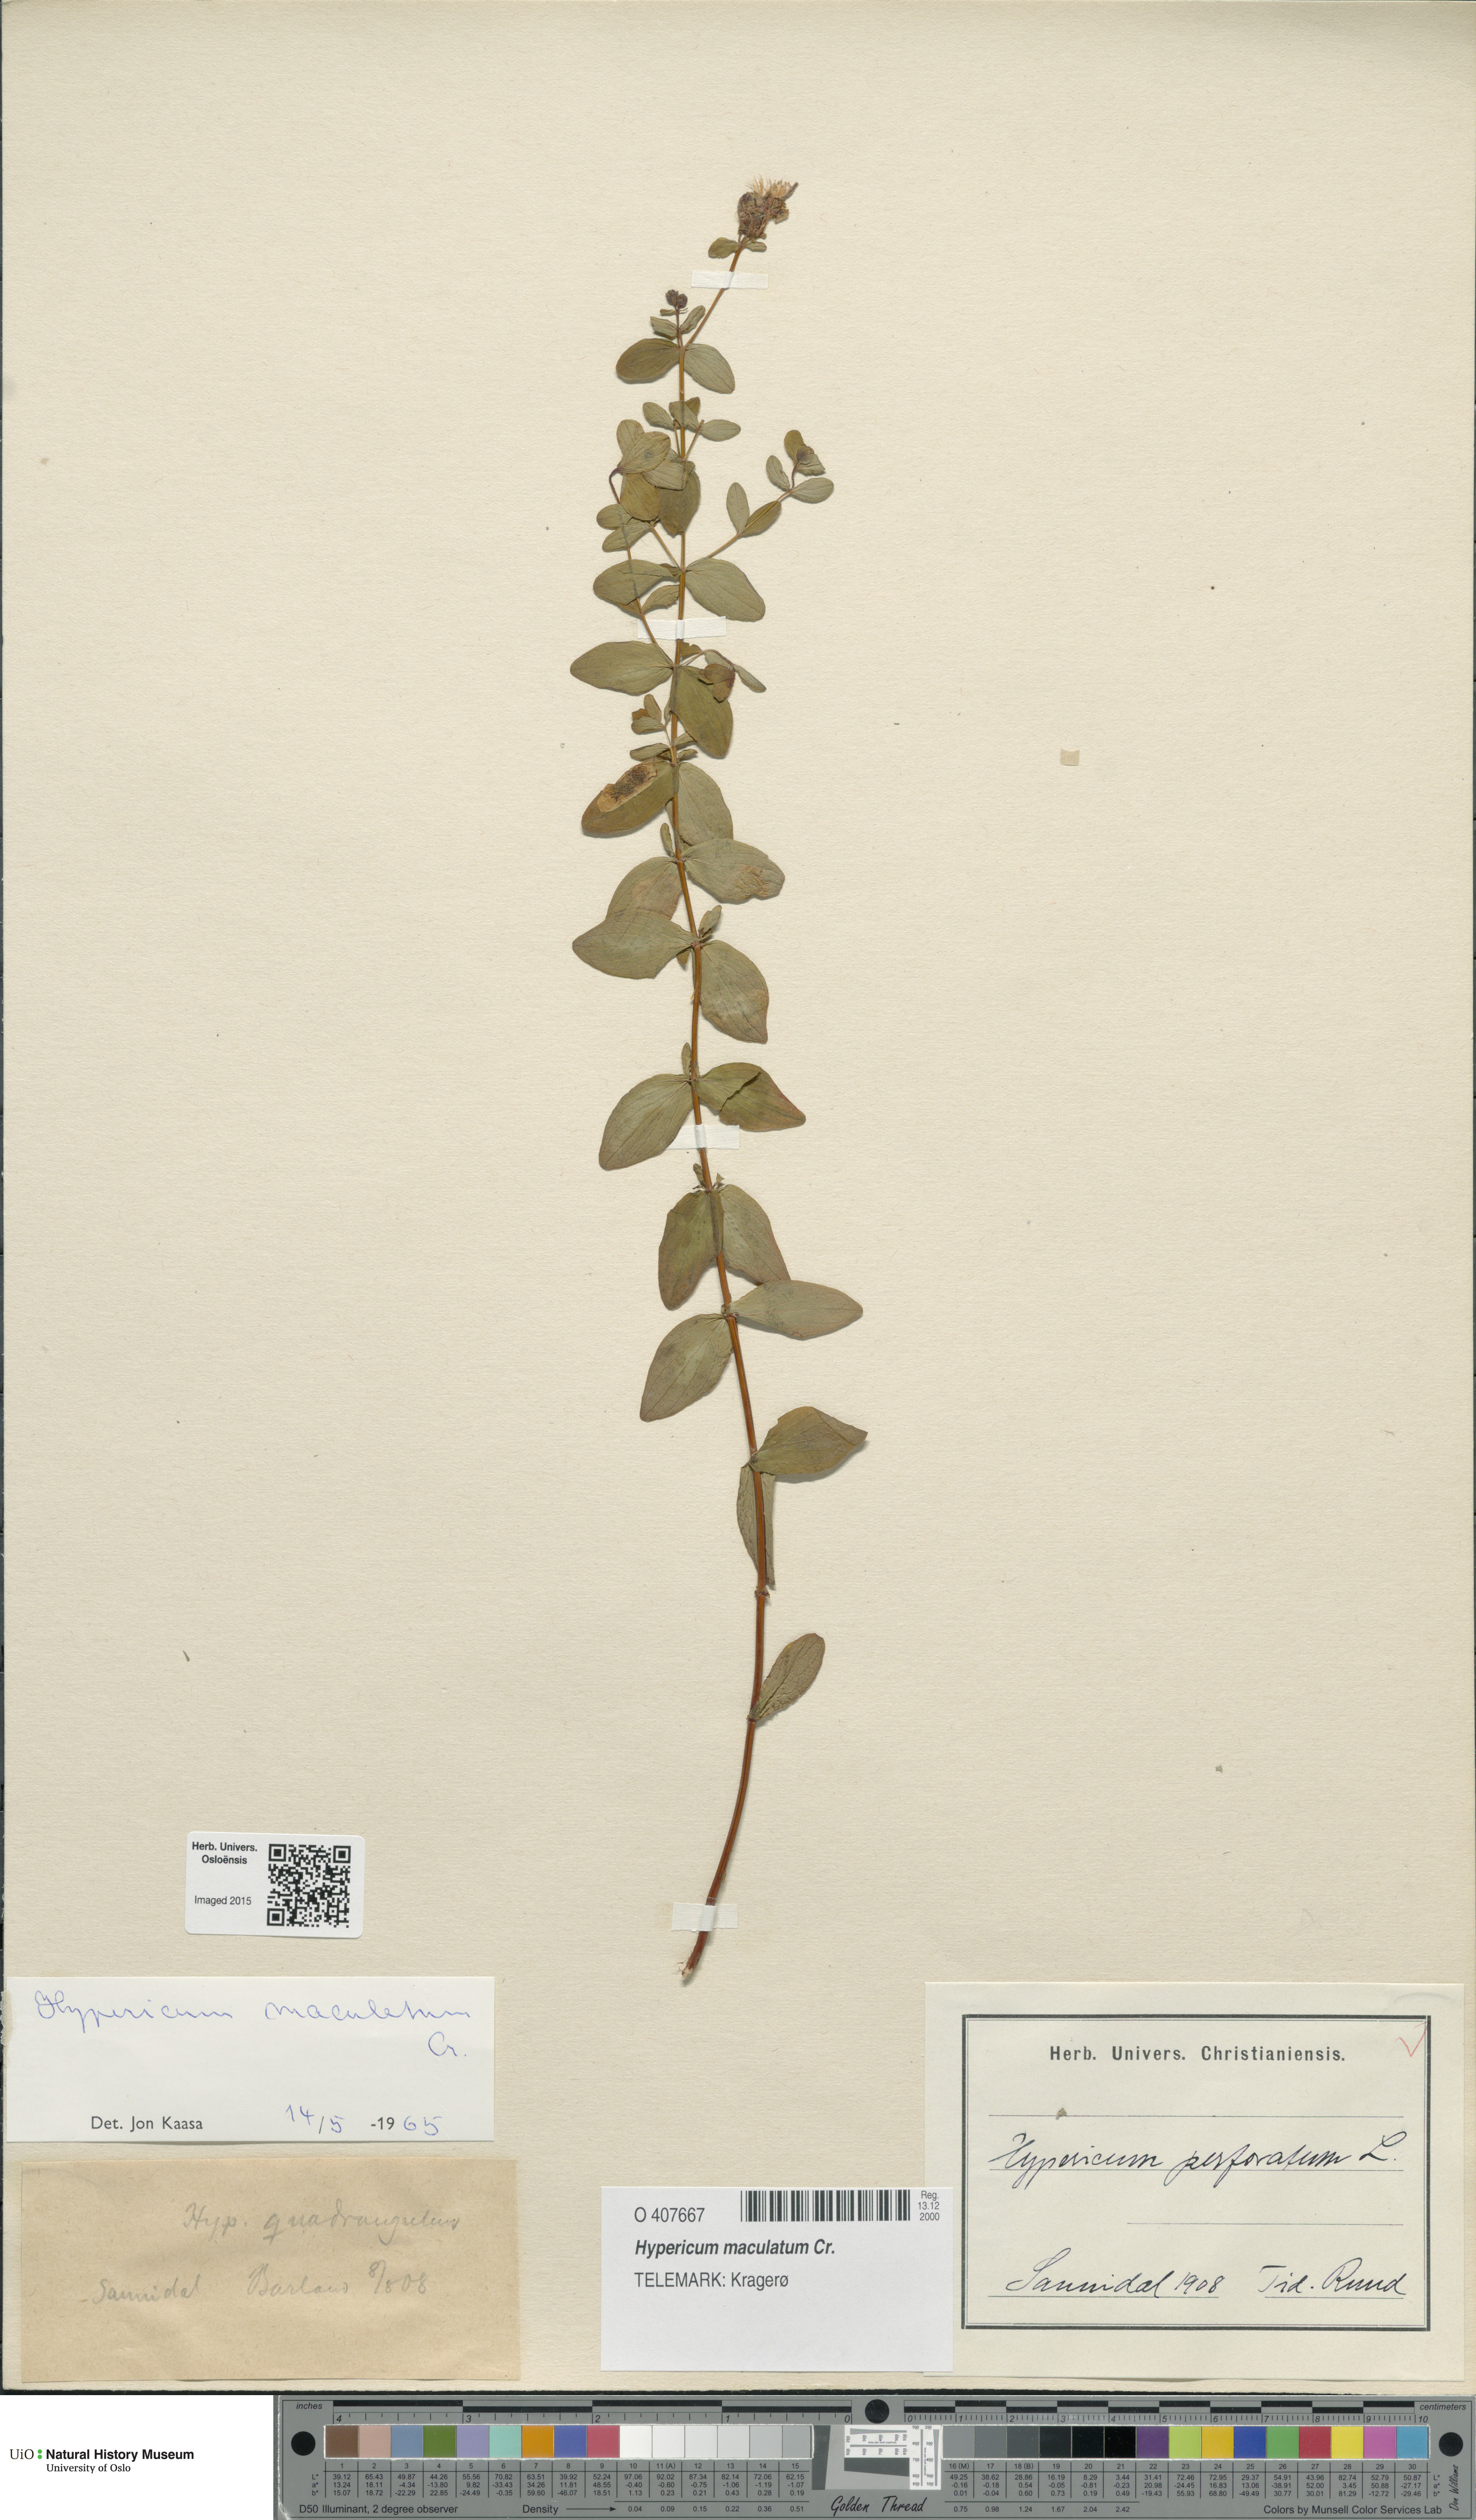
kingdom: Plantae
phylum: Tracheophyta
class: Magnoliopsida
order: Malpighiales
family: Hypericaceae
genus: Hypericum
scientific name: Hypericum maculatum
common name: Imperforate st. john's-wort
